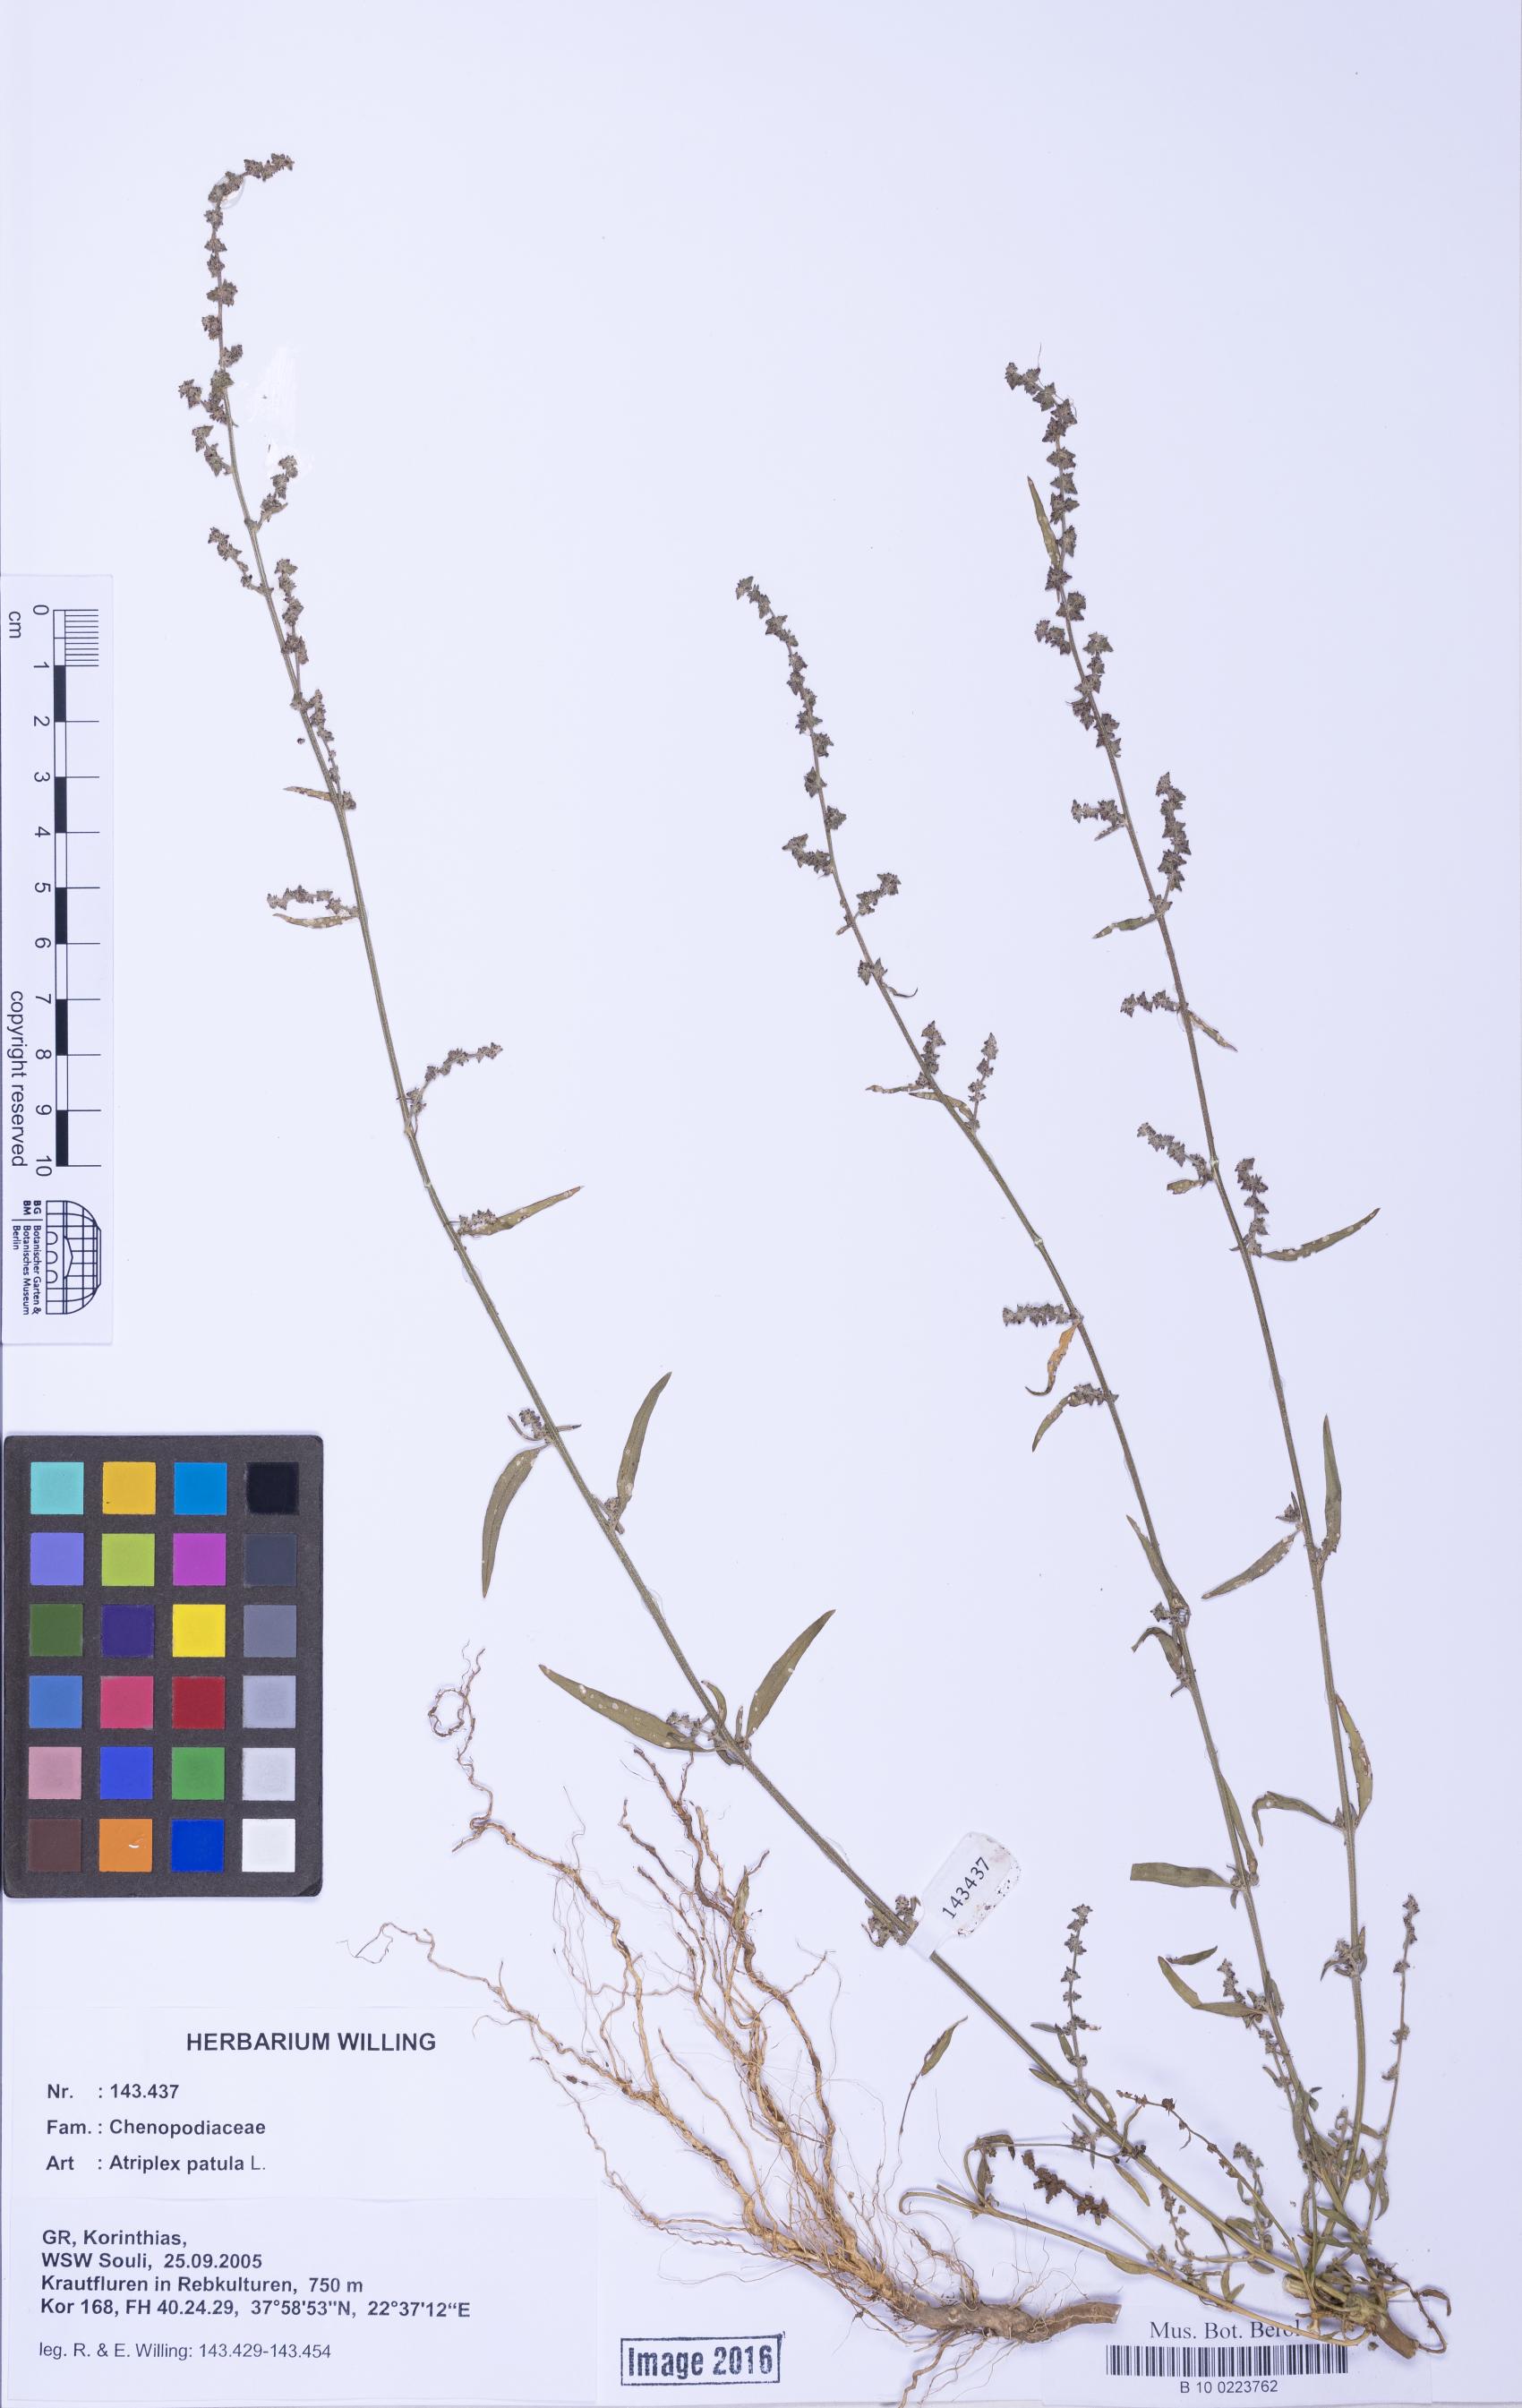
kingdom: Plantae
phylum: Tracheophyta
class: Magnoliopsida
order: Caryophyllales
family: Amaranthaceae
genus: Atriplex
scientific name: Atriplex patula
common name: Common orache
